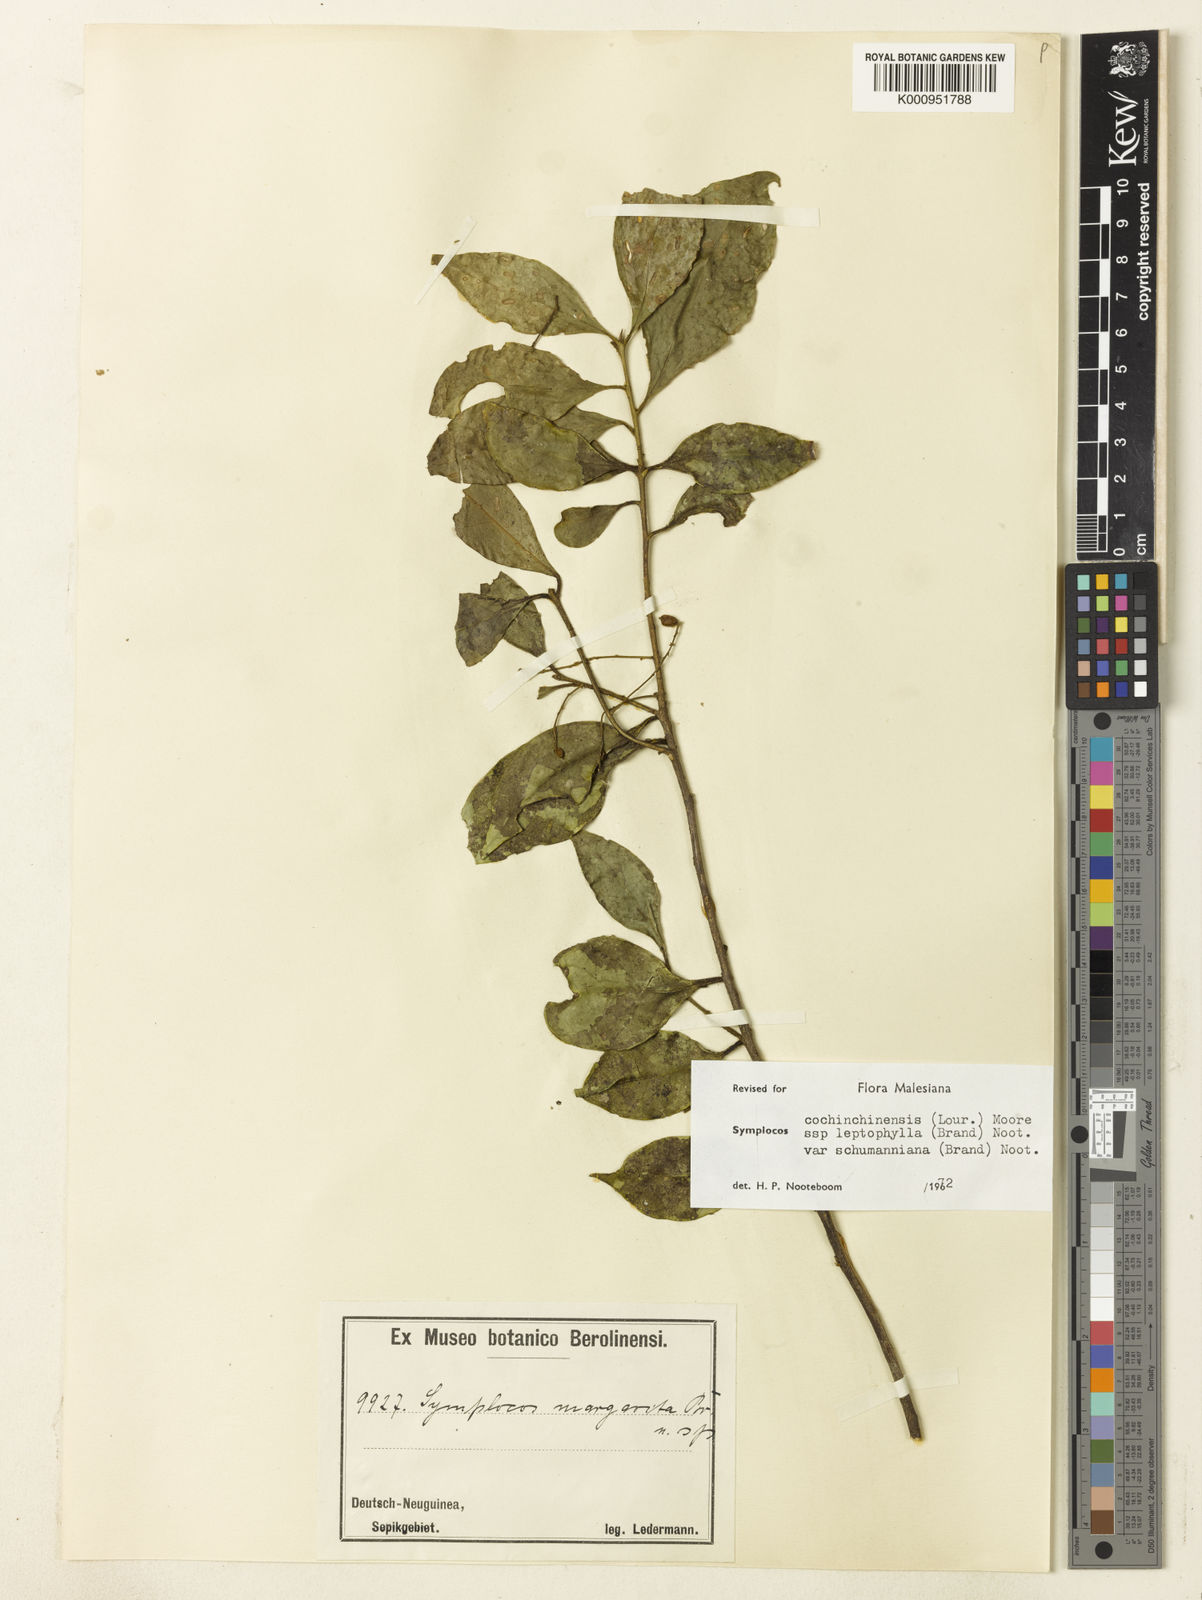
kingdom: Plantae
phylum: Tracheophyta
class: Magnoliopsida
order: Ericales
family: Symplocaceae
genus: Symplocos
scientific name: Symplocos cochinchinensis
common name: Buff hazelwood
